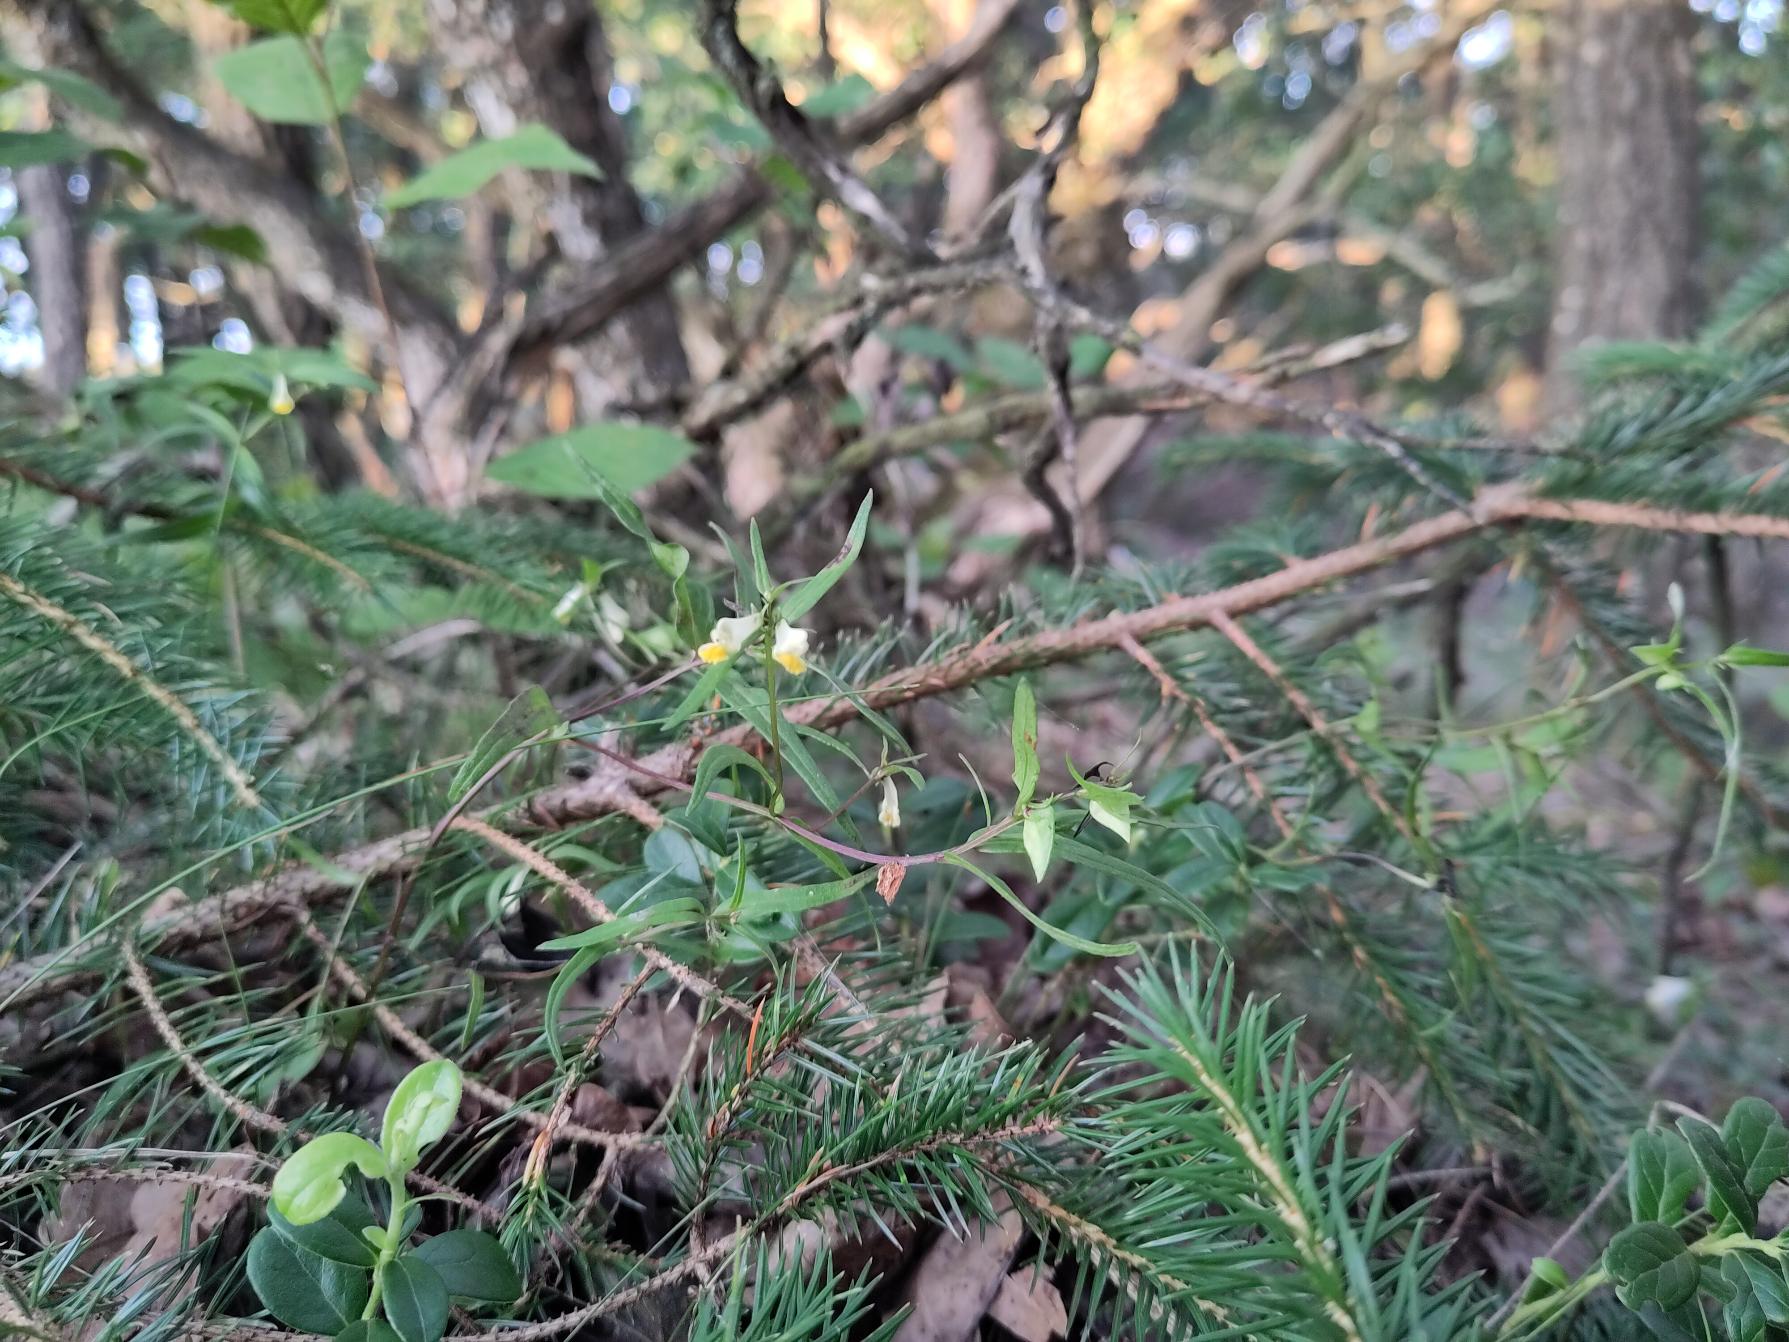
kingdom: Plantae
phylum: Tracheophyta
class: Magnoliopsida
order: Lamiales
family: Orobanchaceae
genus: Melampyrum
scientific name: Melampyrum pratense
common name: Almindelig kohvede
